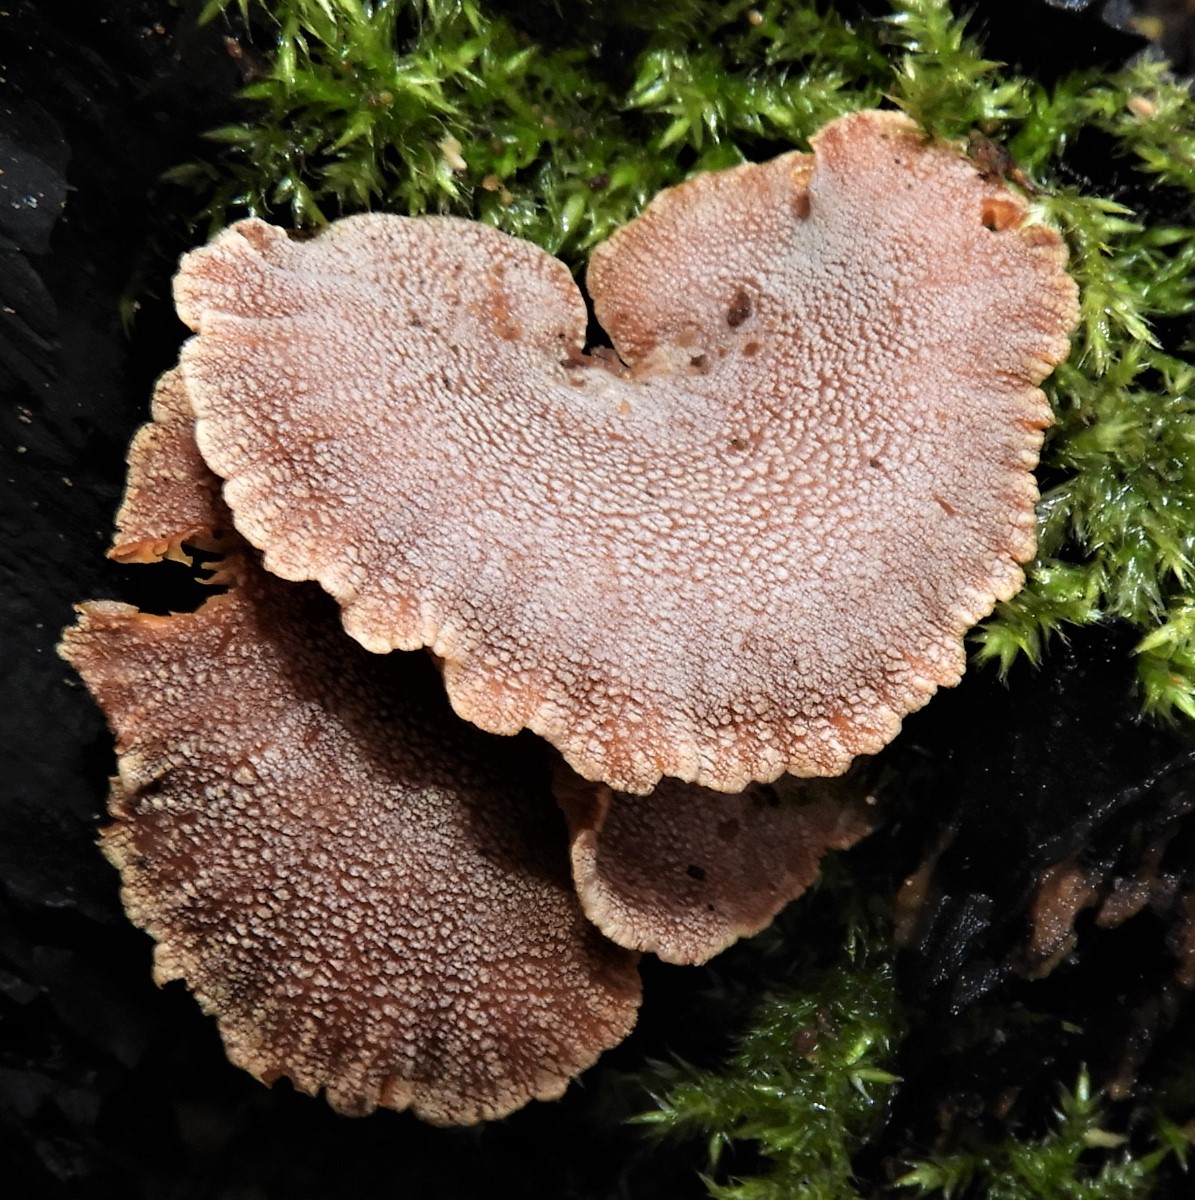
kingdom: Fungi
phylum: Basidiomycota
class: Agaricomycetes
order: Agaricales
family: Mycenaceae
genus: Panellus
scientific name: Panellus stipticus
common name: kliddet epaulethat
